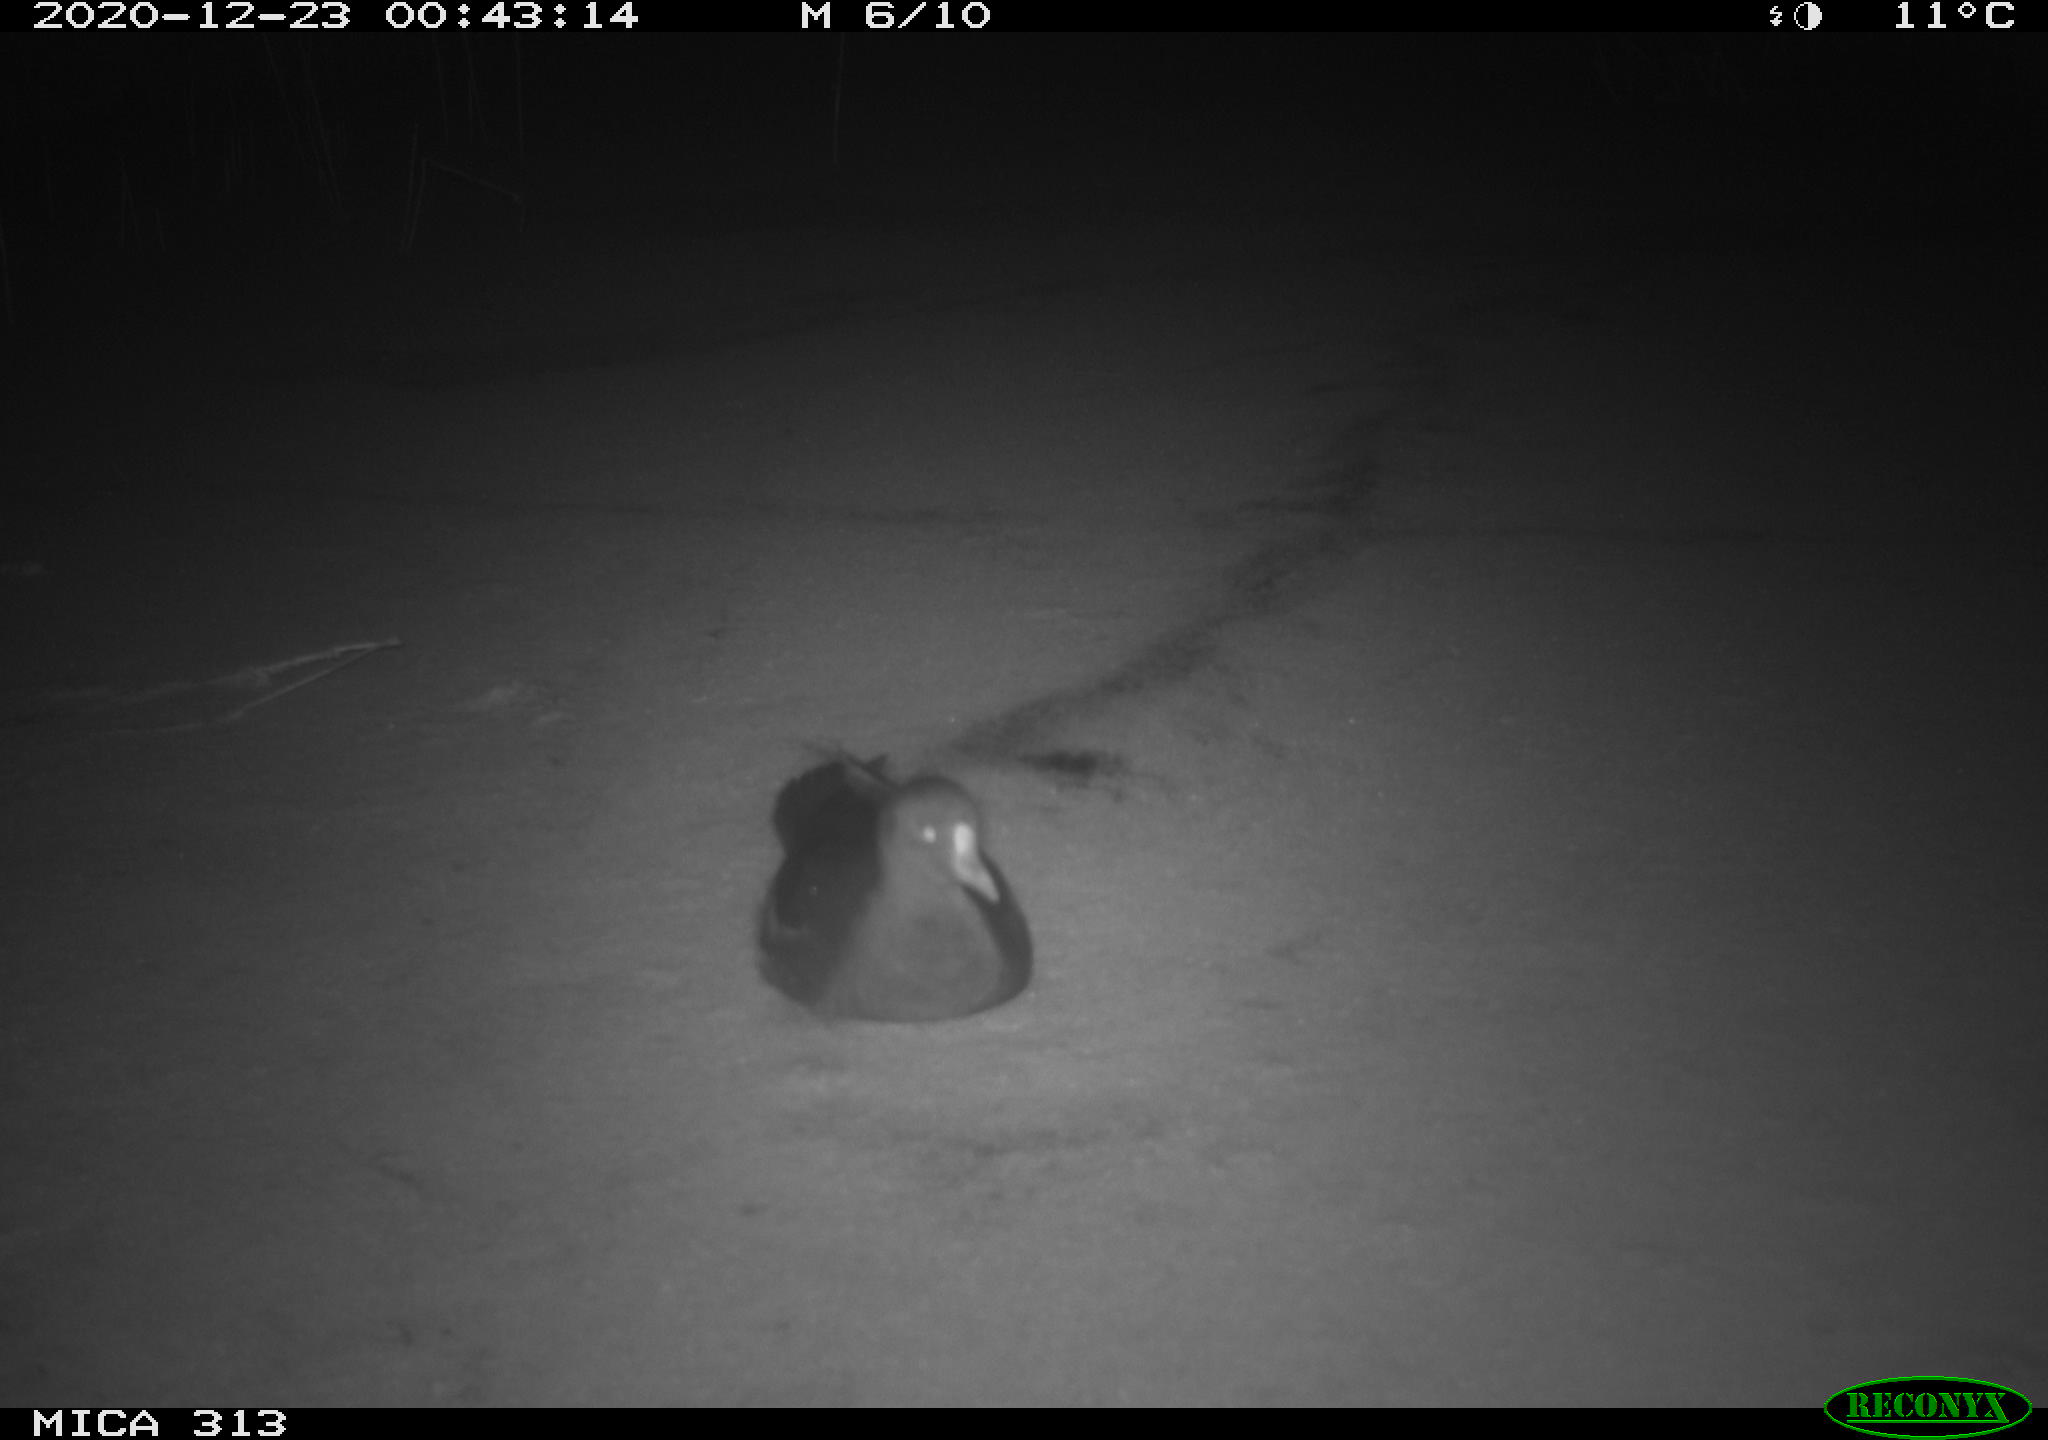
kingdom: Animalia
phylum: Chordata
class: Aves
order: Gruiformes
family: Rallidae
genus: Fulica
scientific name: Fulica atra
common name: Eurasian coot
